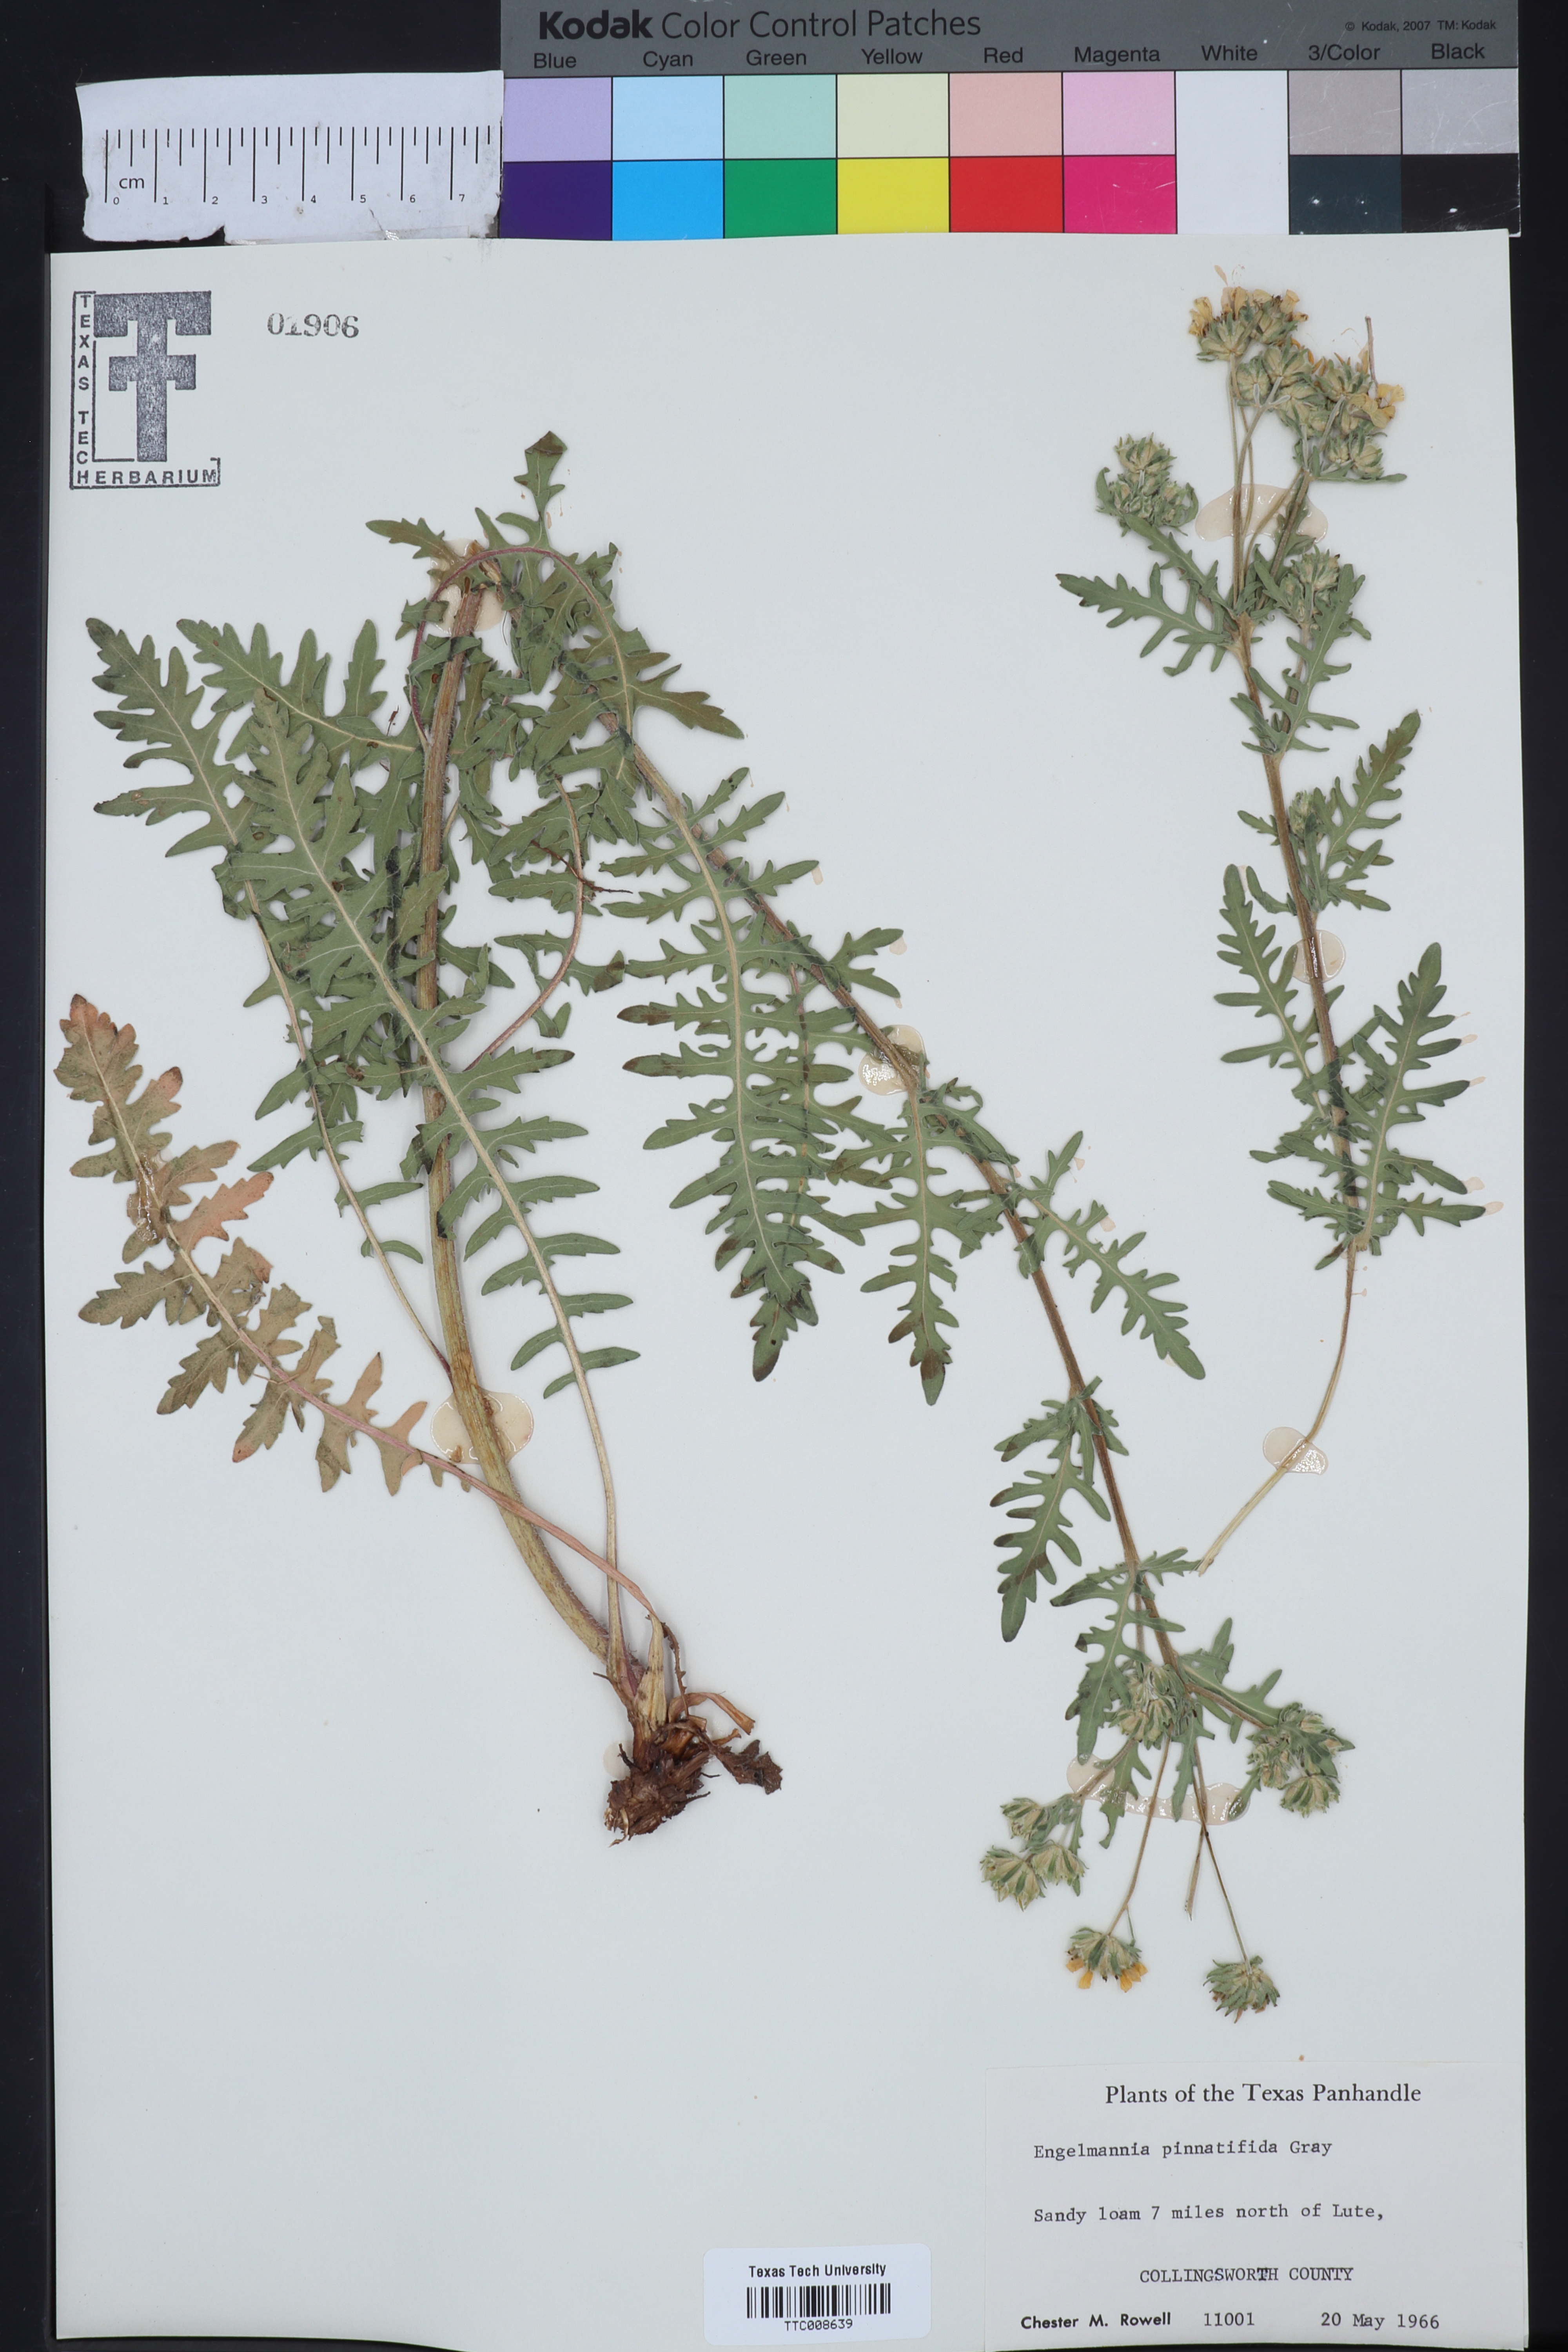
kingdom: Plantae
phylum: Tracheophyta
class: Magnoliopsida
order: Asterales
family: Asteraceae
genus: Engelmannia
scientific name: Engelmannia peristenia
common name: Engelmann's daisy
